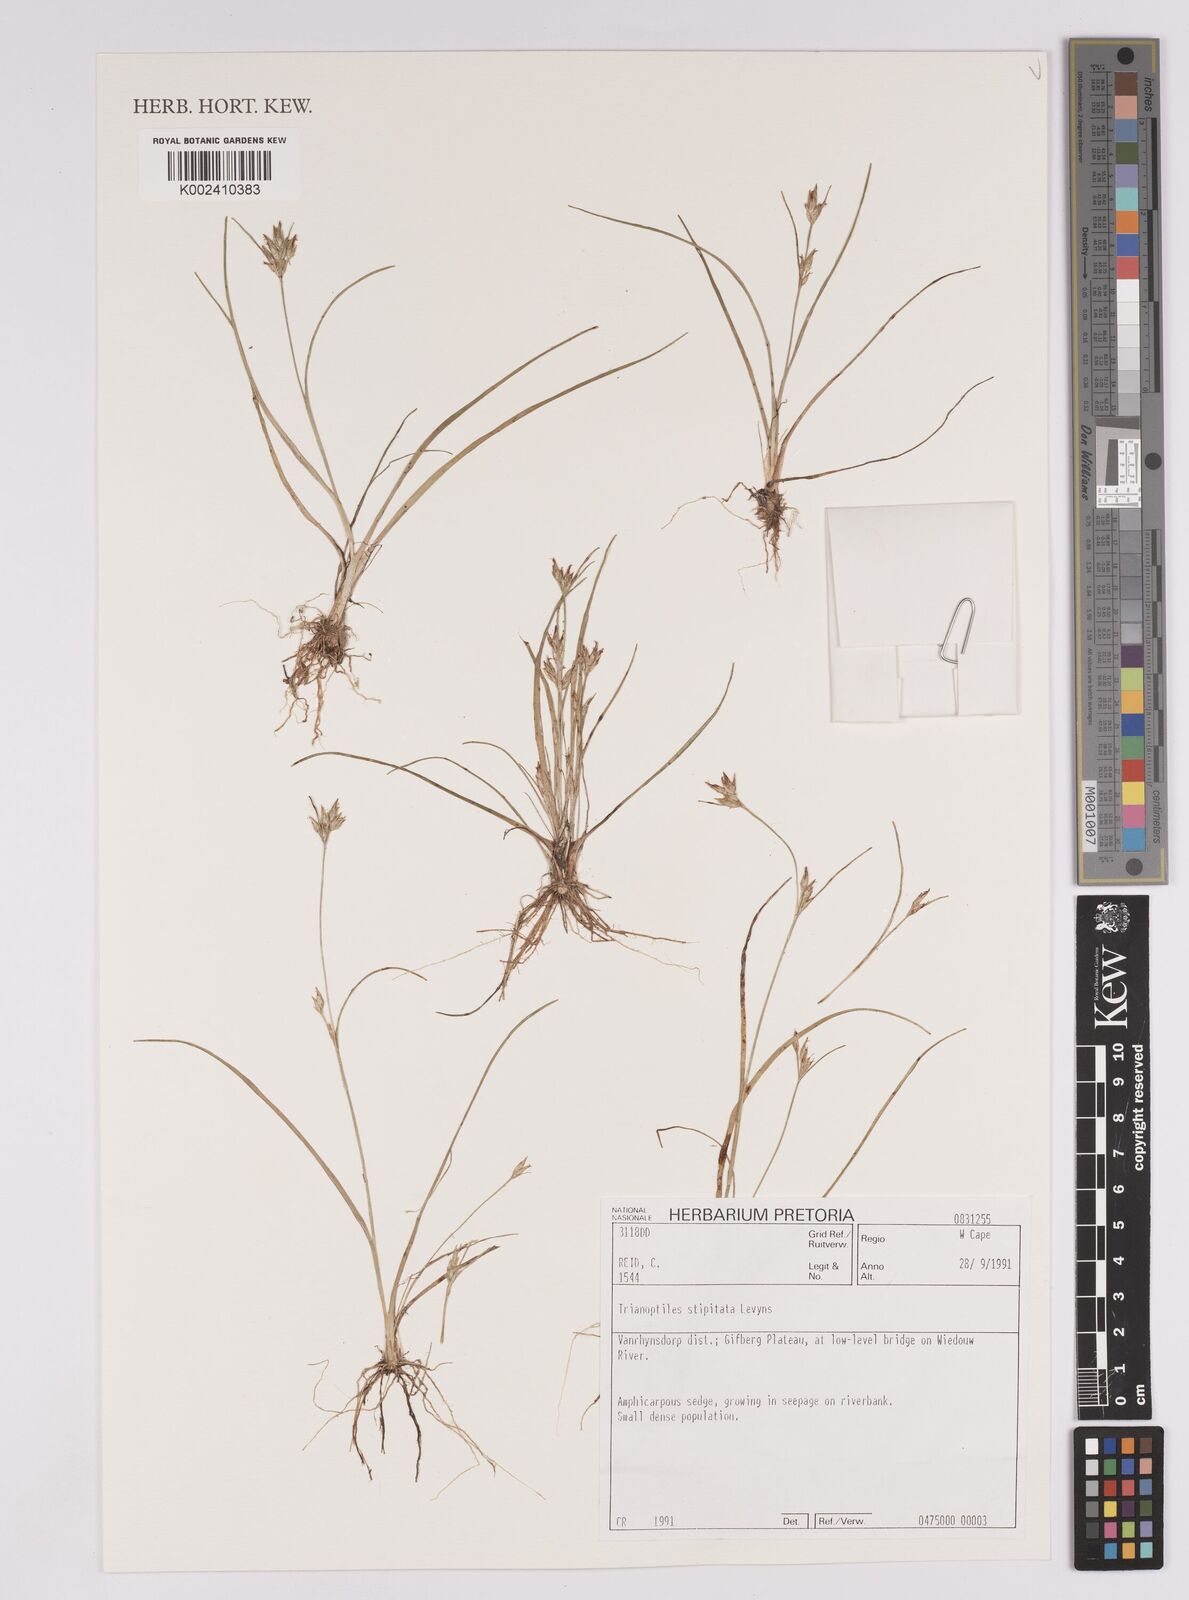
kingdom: Plantae
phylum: Tracheophyta
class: Liliopsida
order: Poales
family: Cyperaceae
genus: Trianoptiles
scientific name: Trianoptiles stipitata
